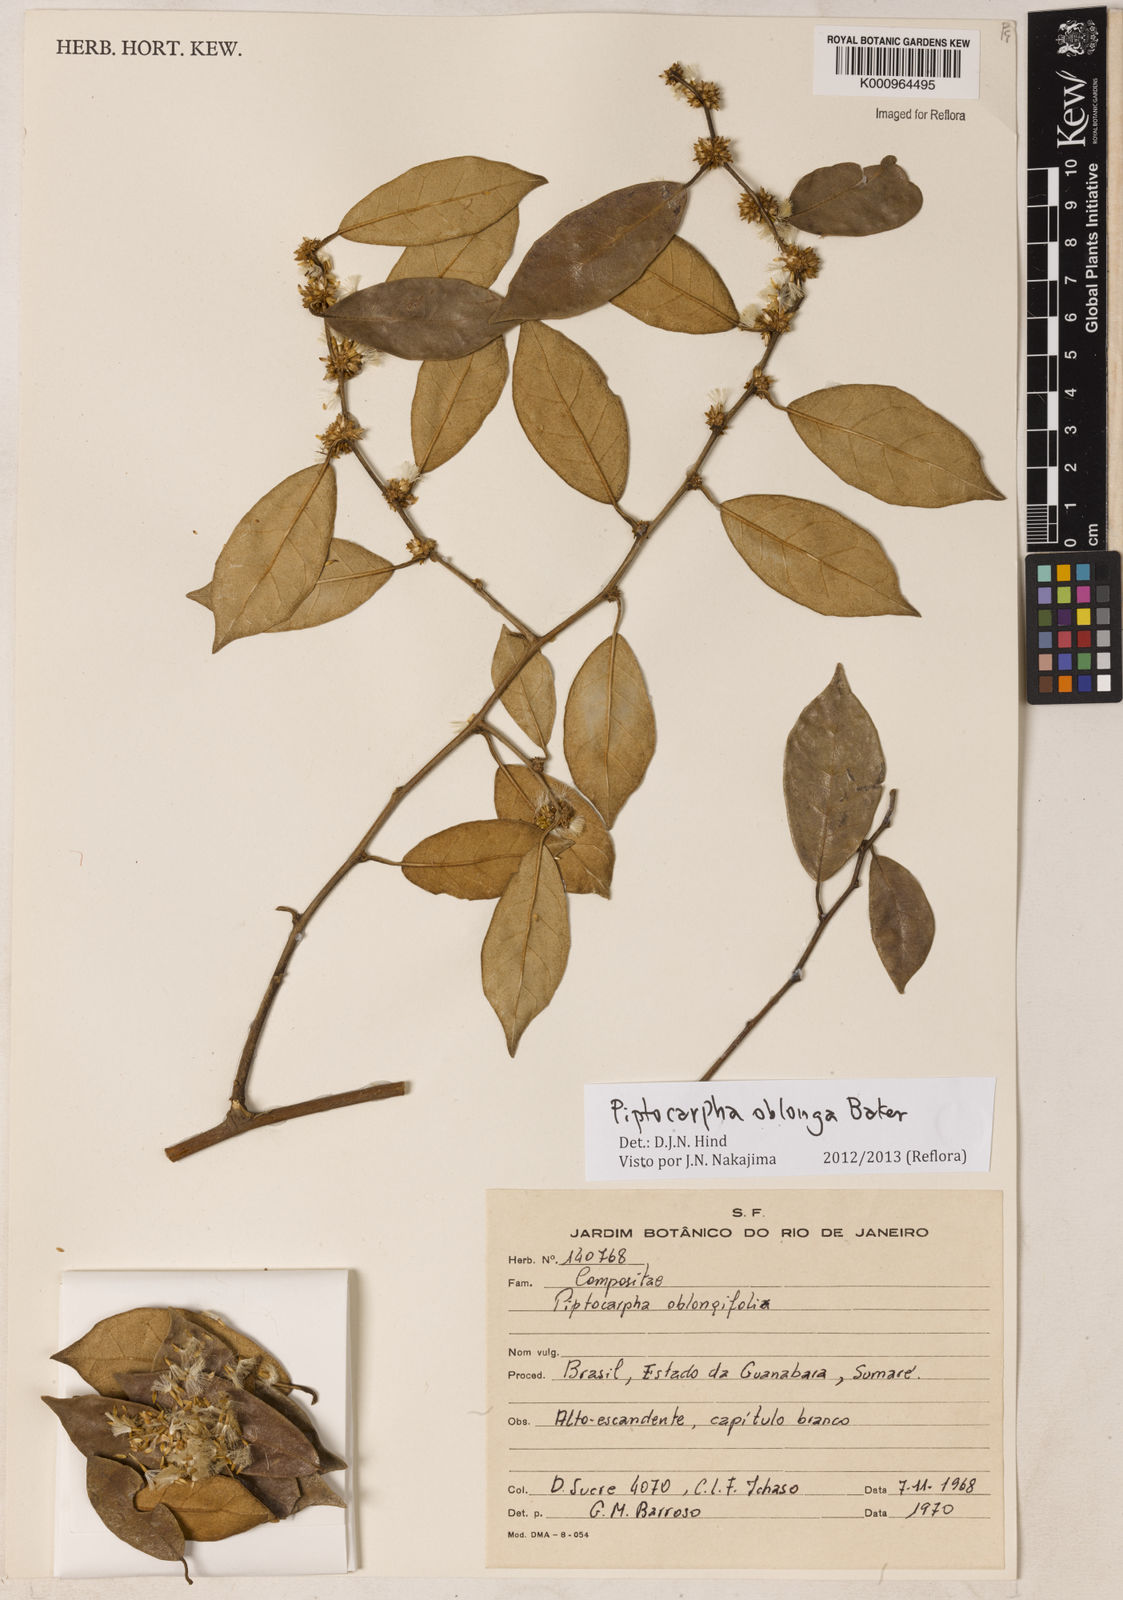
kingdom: Plantae
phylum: Tracheophyta
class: Magnoliopsida
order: Asterales
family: Asteraceae
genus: Piptocarpha
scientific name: Piptocarpha oblonga
